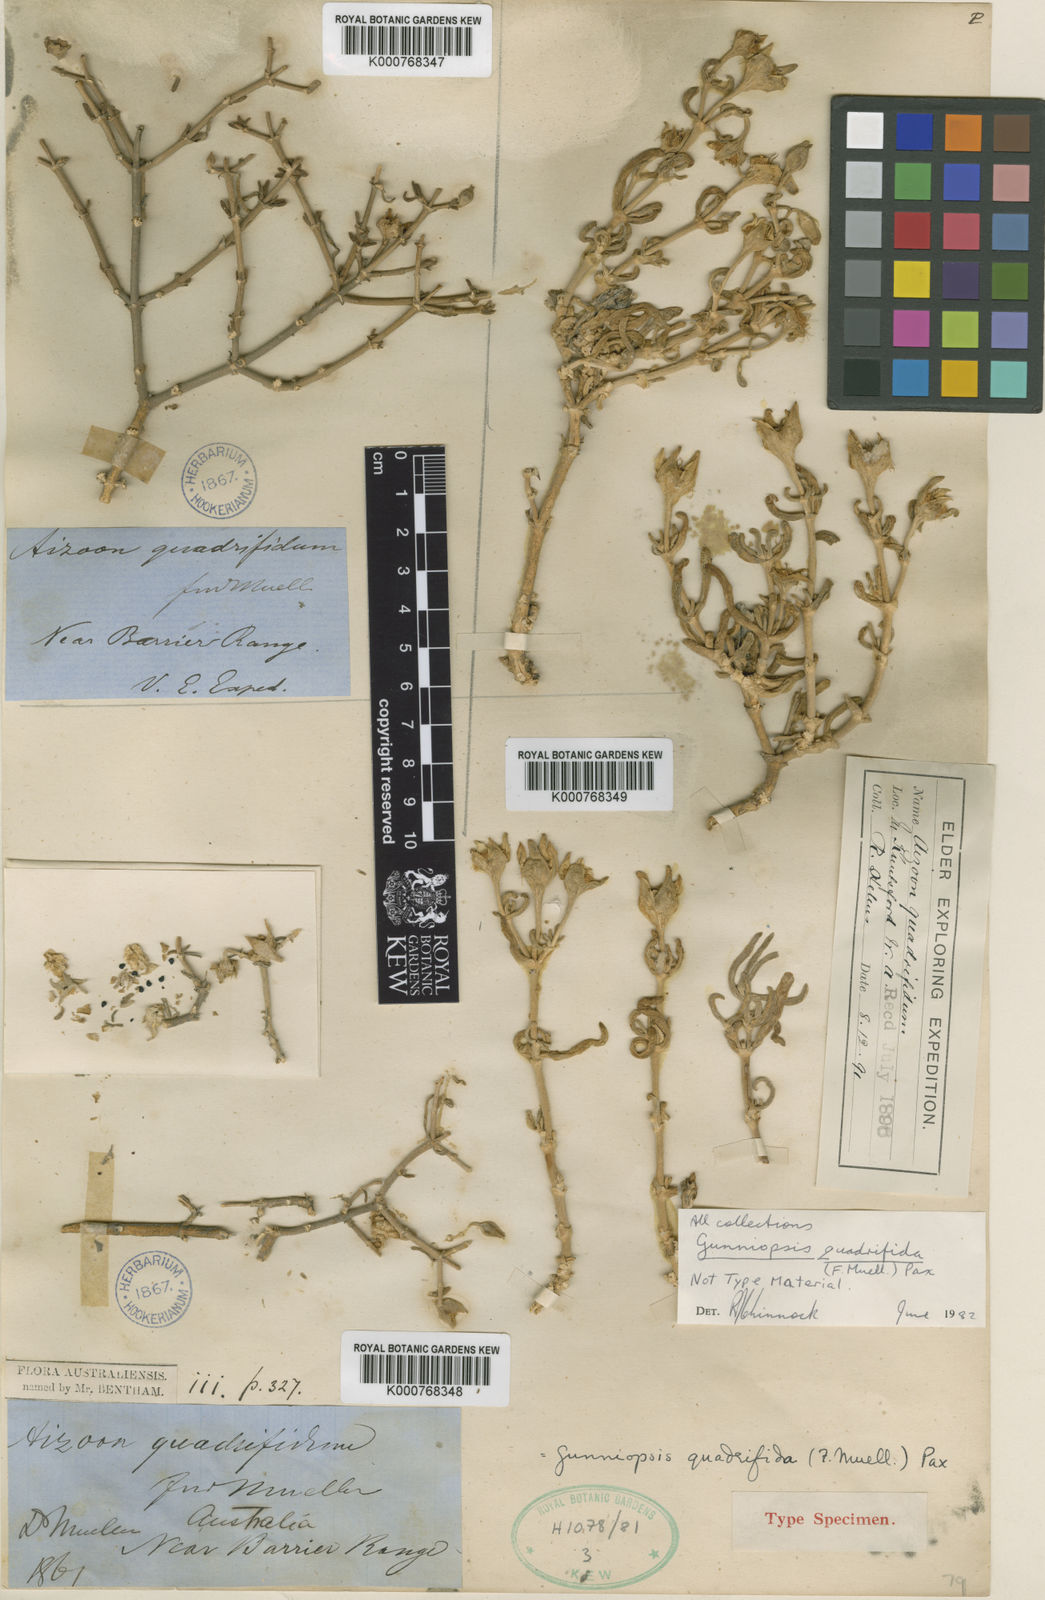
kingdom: Plantae
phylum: Tracheophyta
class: Magnoliopsida
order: Caryophyllales
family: Aizoaceae
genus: Gunniopsis
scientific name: Gunniopsis quadrifida
